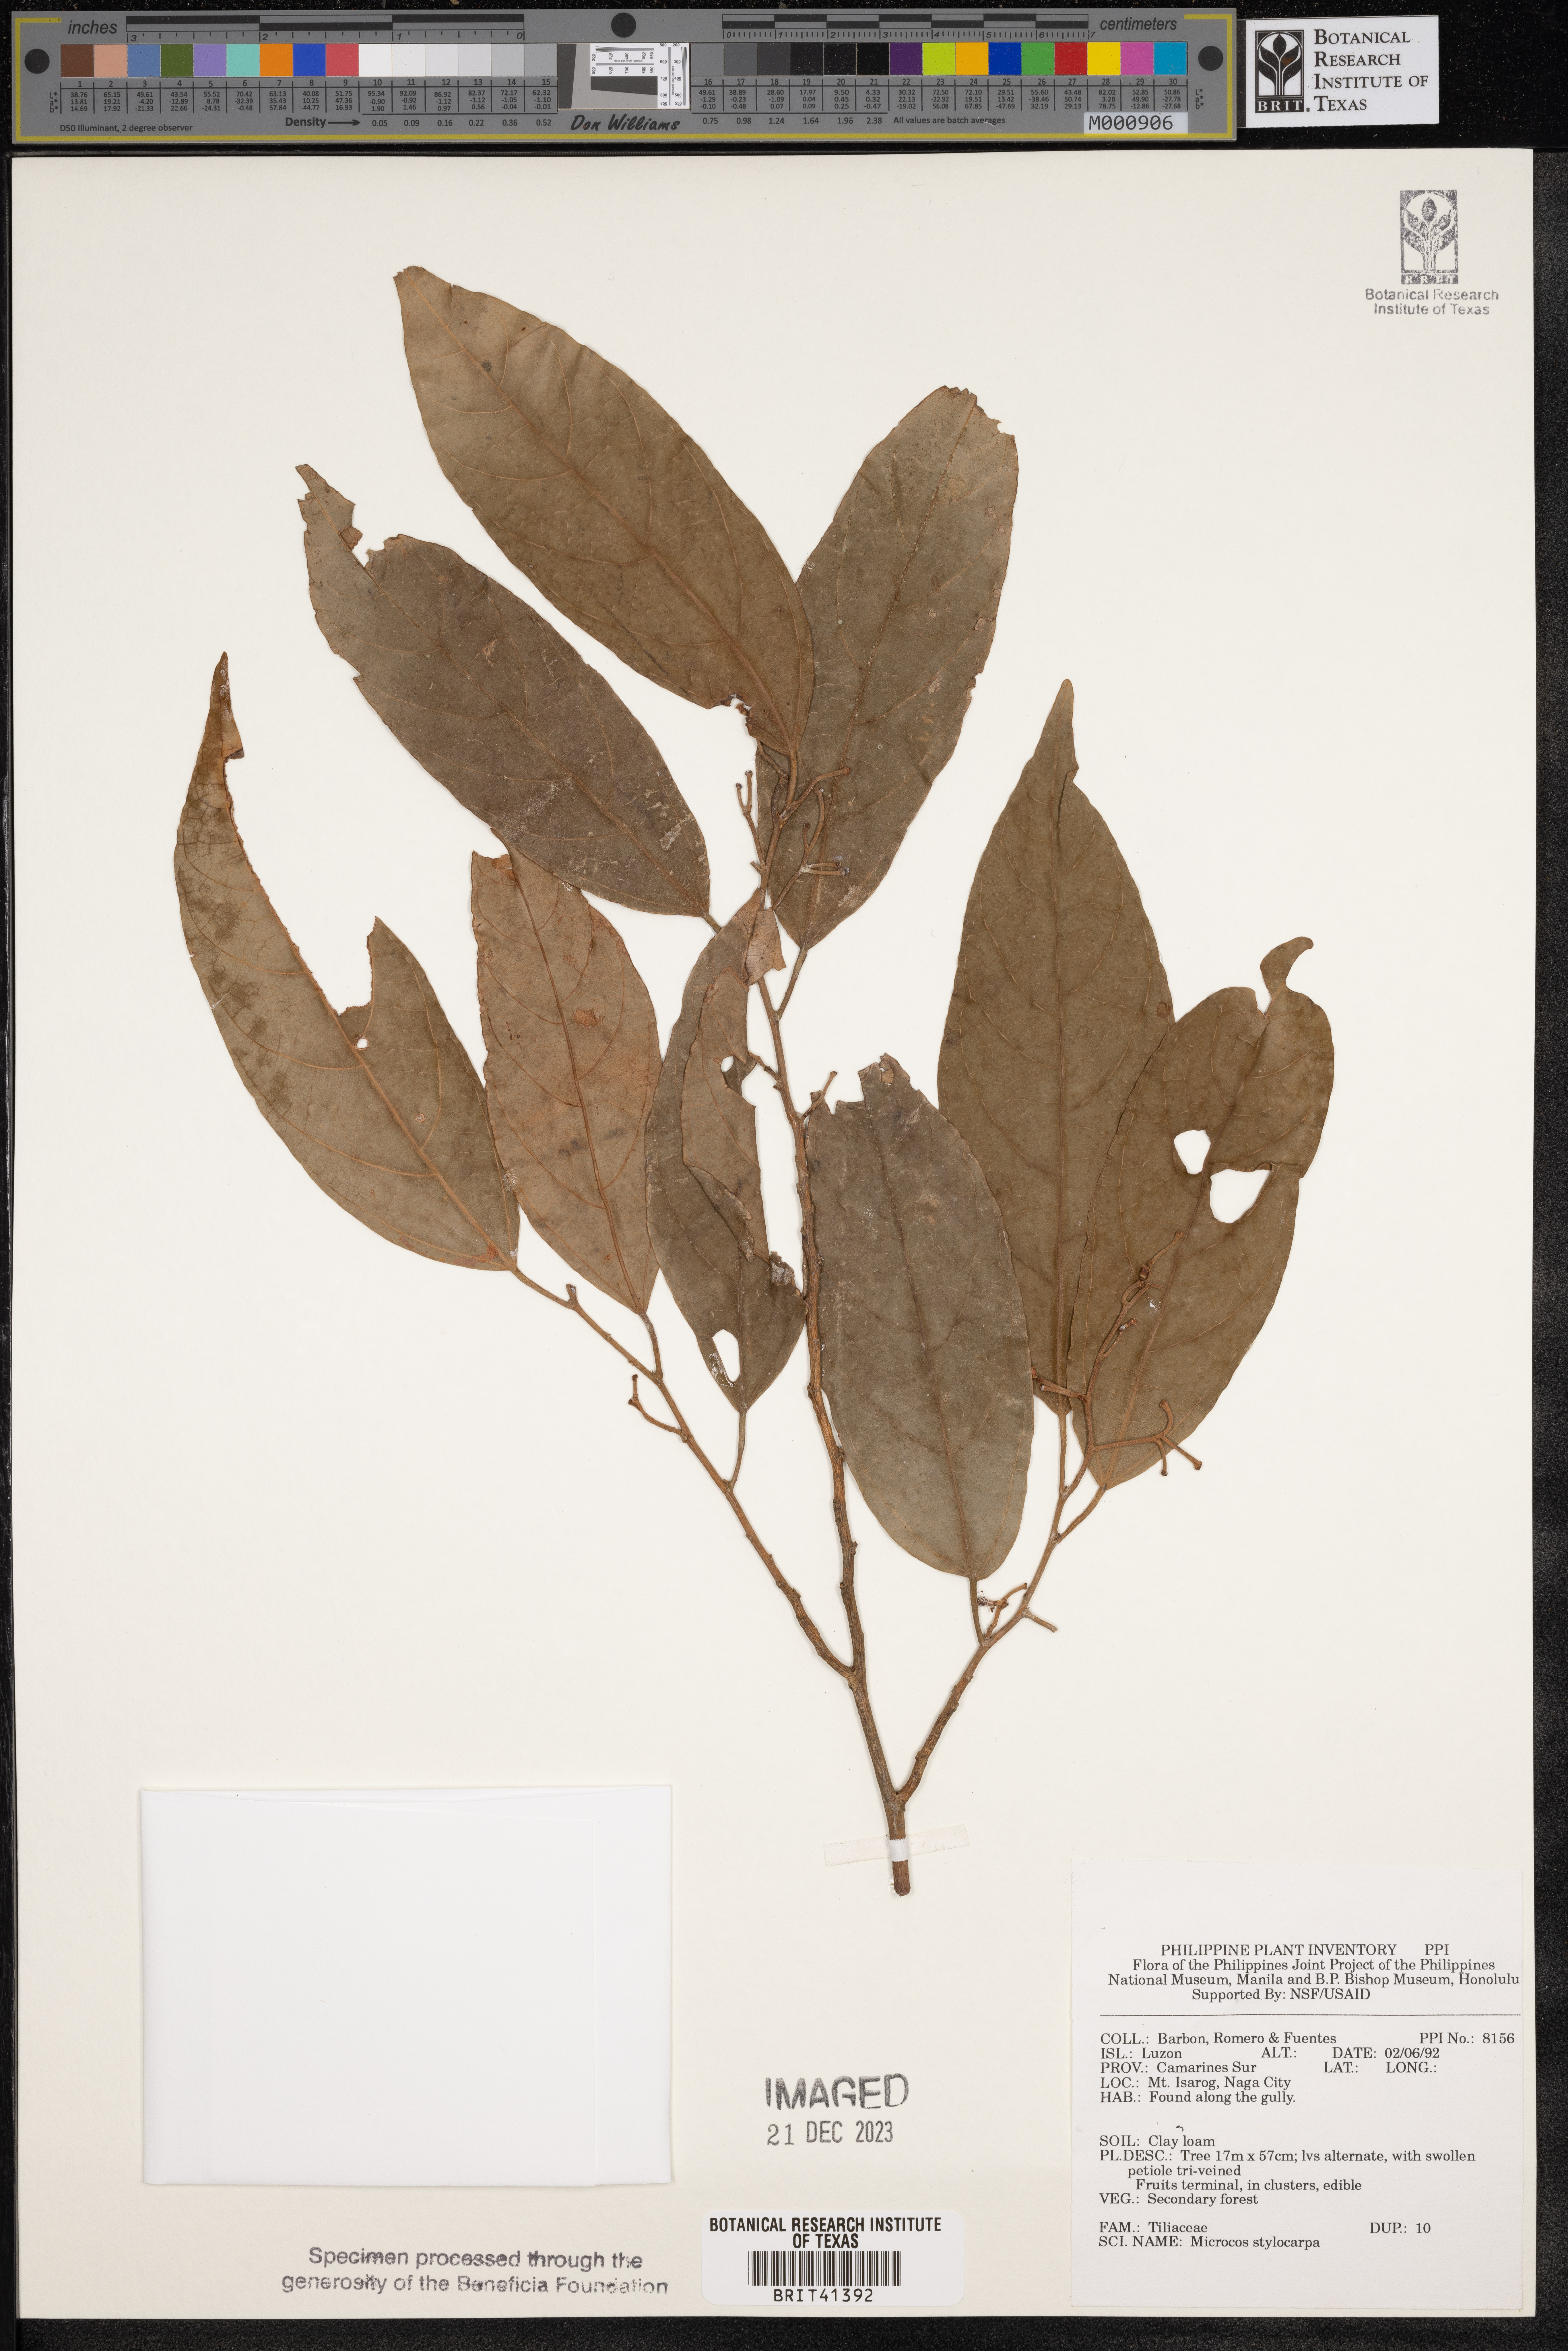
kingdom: Plantae
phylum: Tracheophyta
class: Magnoliopsida
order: Malvales
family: Malvaceae
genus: Microcos
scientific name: Microcos triflora
